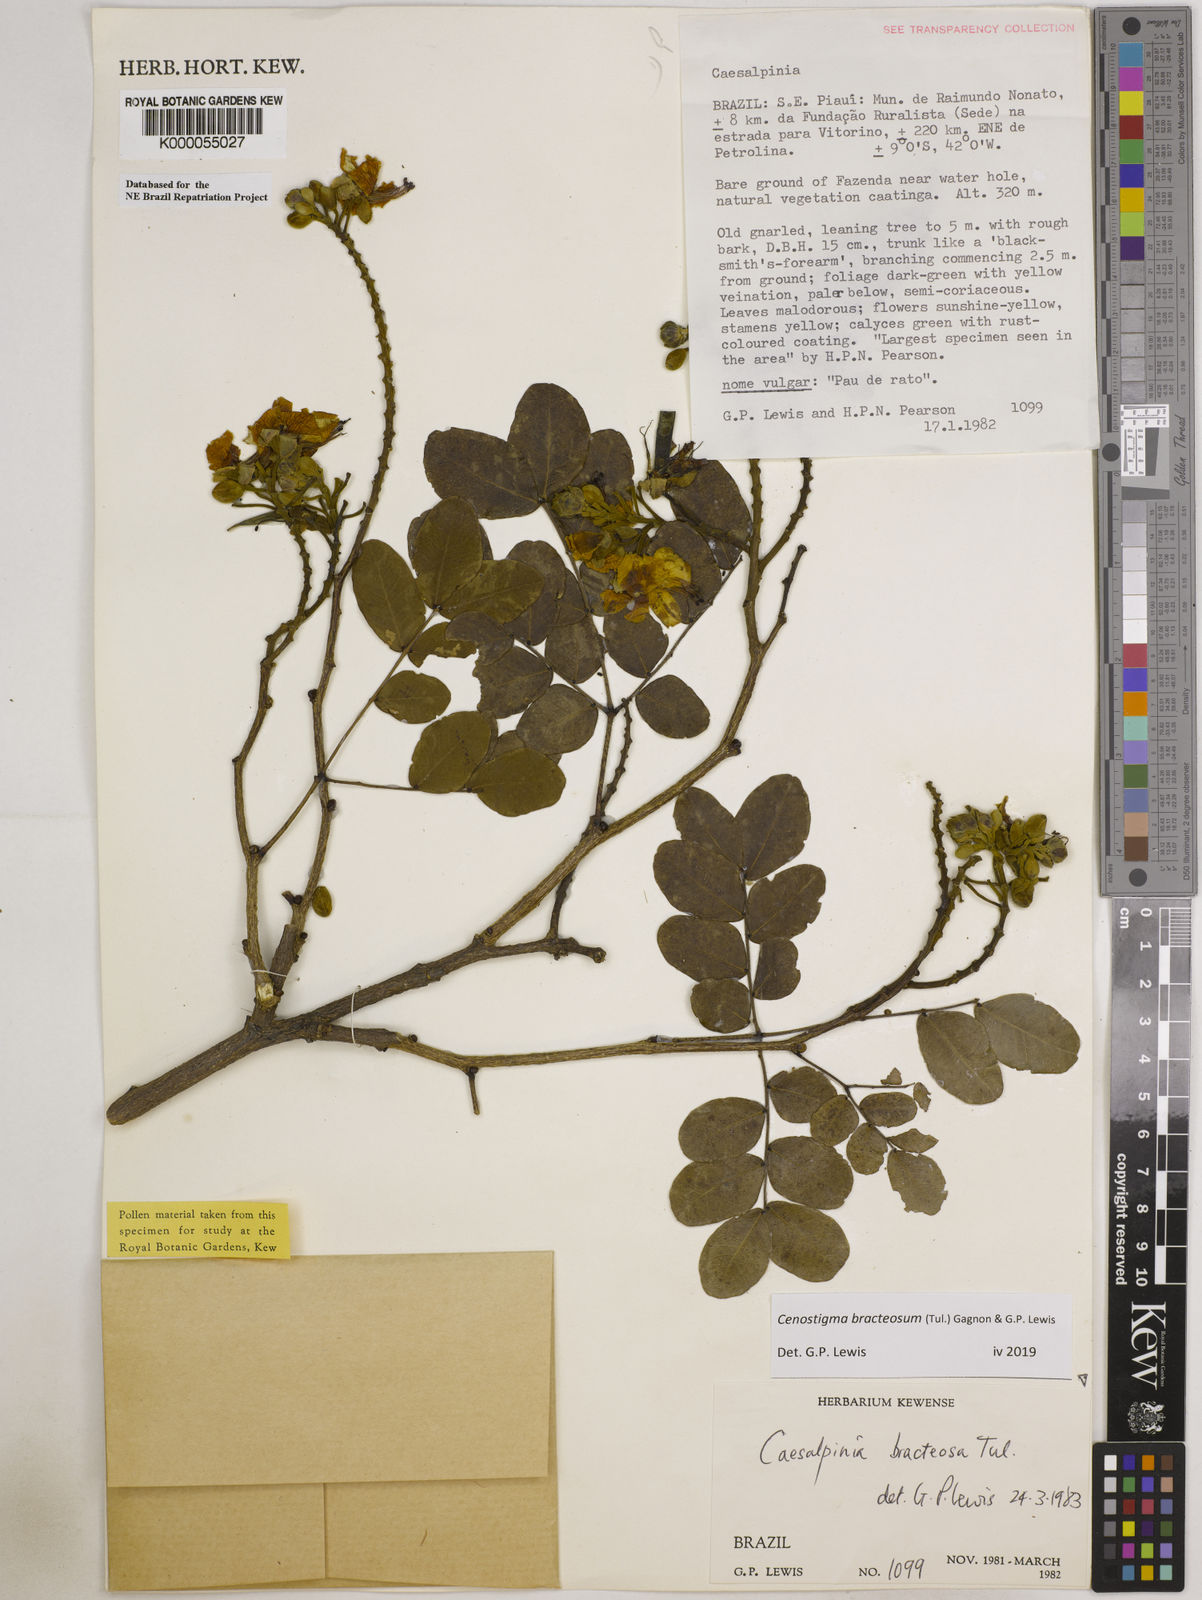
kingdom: Plantae
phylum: Tracheophyta
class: Magnoliopsida
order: Fabales
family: Fabaceae
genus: Cenostigma
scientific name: Cenostigma bracteosum
